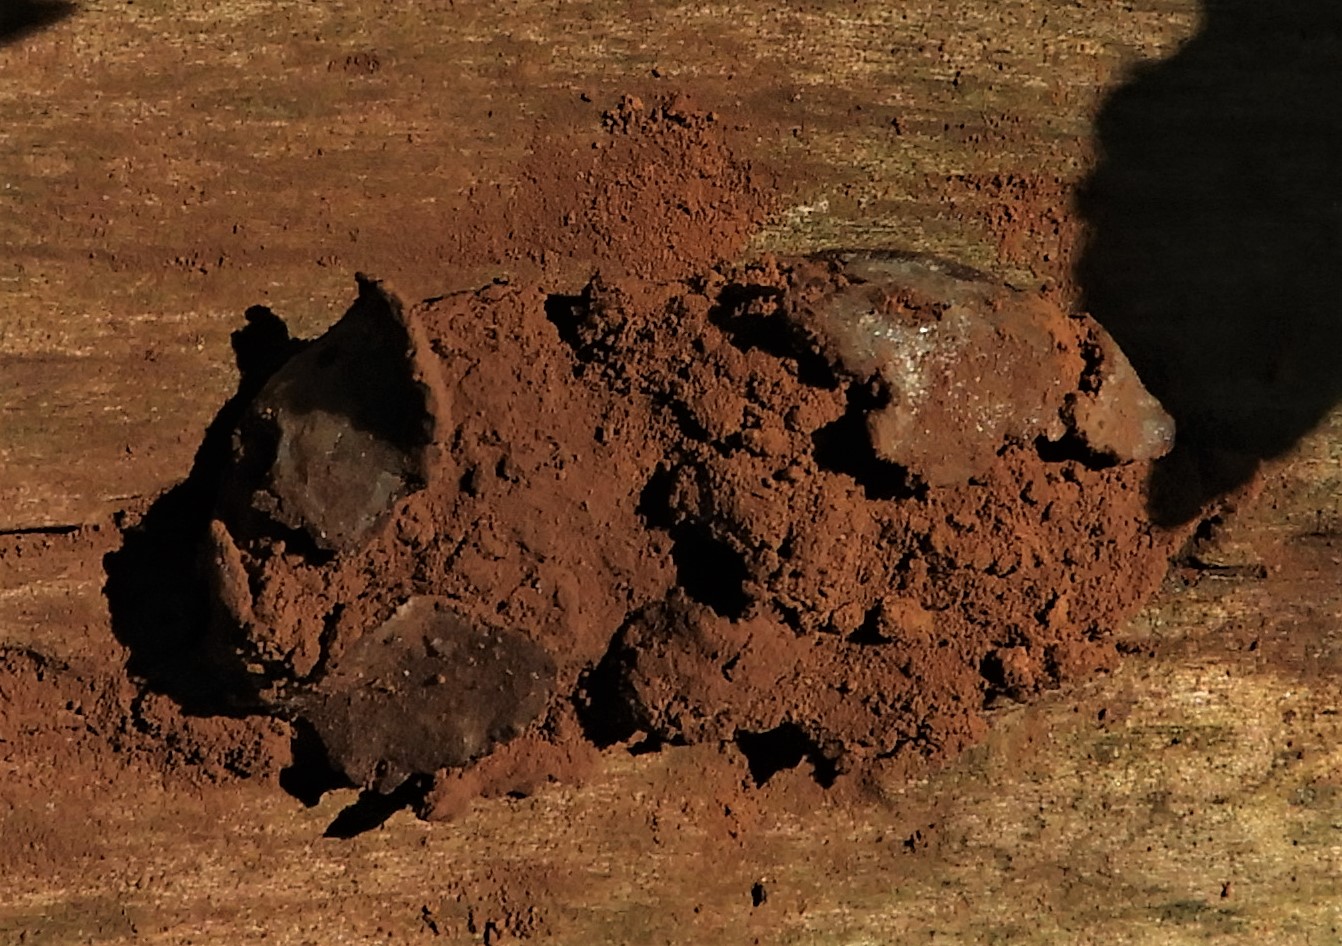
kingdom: Protozoa
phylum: Mycetozoa
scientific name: Mycetozoa
